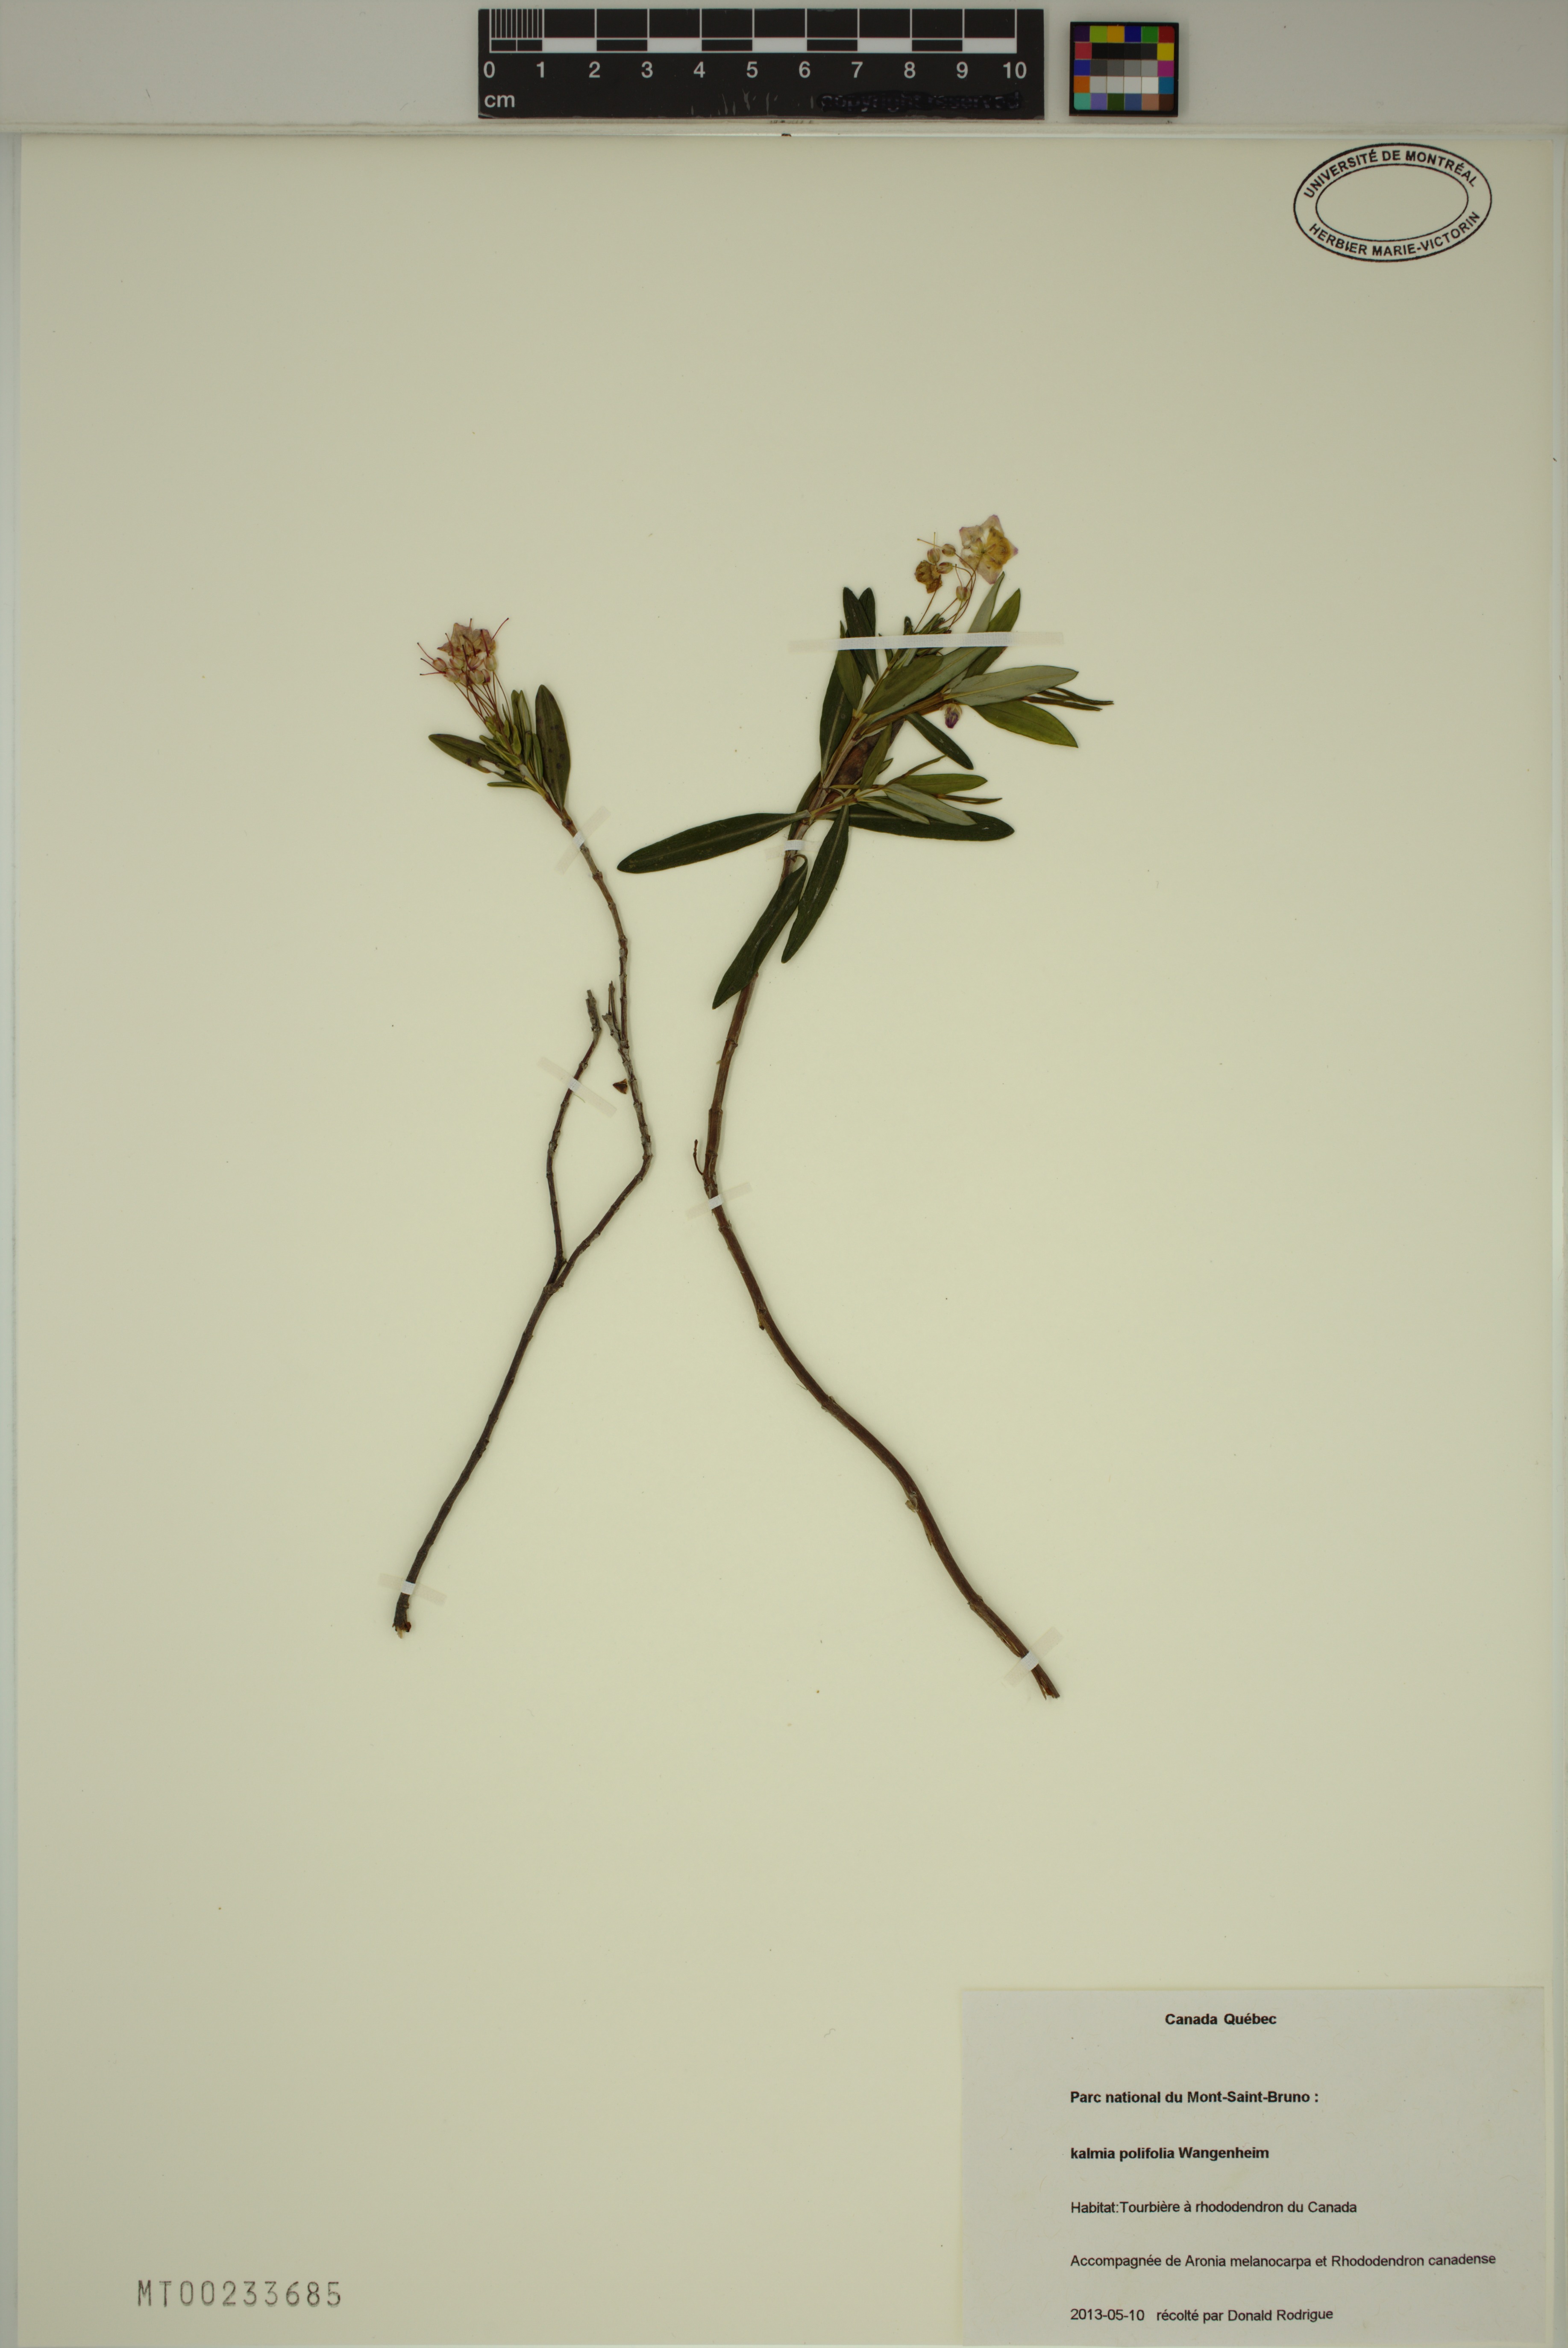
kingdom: Plantae
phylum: Tracheophyta
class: Magnoliopsida
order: Ericales
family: Ericaceae
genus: Kalmia
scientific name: Kalmia polifolia
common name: Bog-laurel
